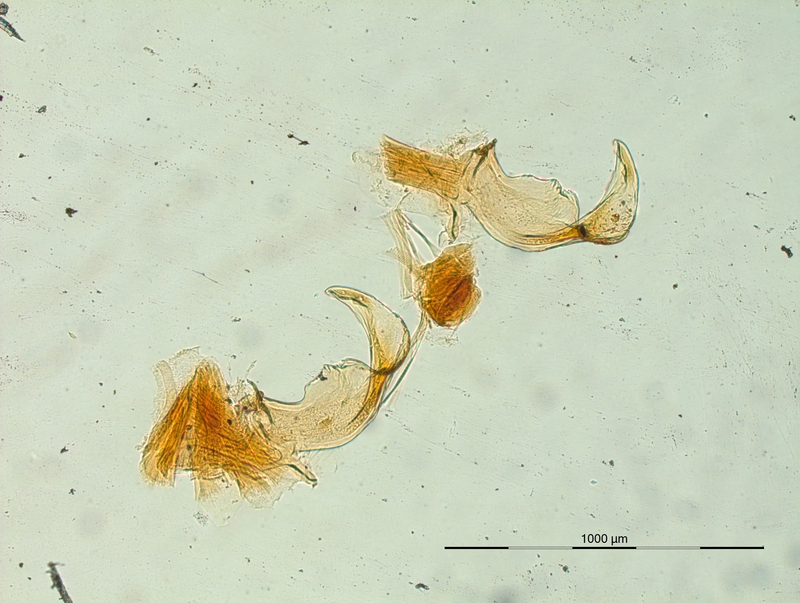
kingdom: Animalia
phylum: Arthropoda
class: Diplopoda
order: Chordeumatida
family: Craspedosomatidae
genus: Helvetiosoma
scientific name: Helvetiosoma alemannicum
